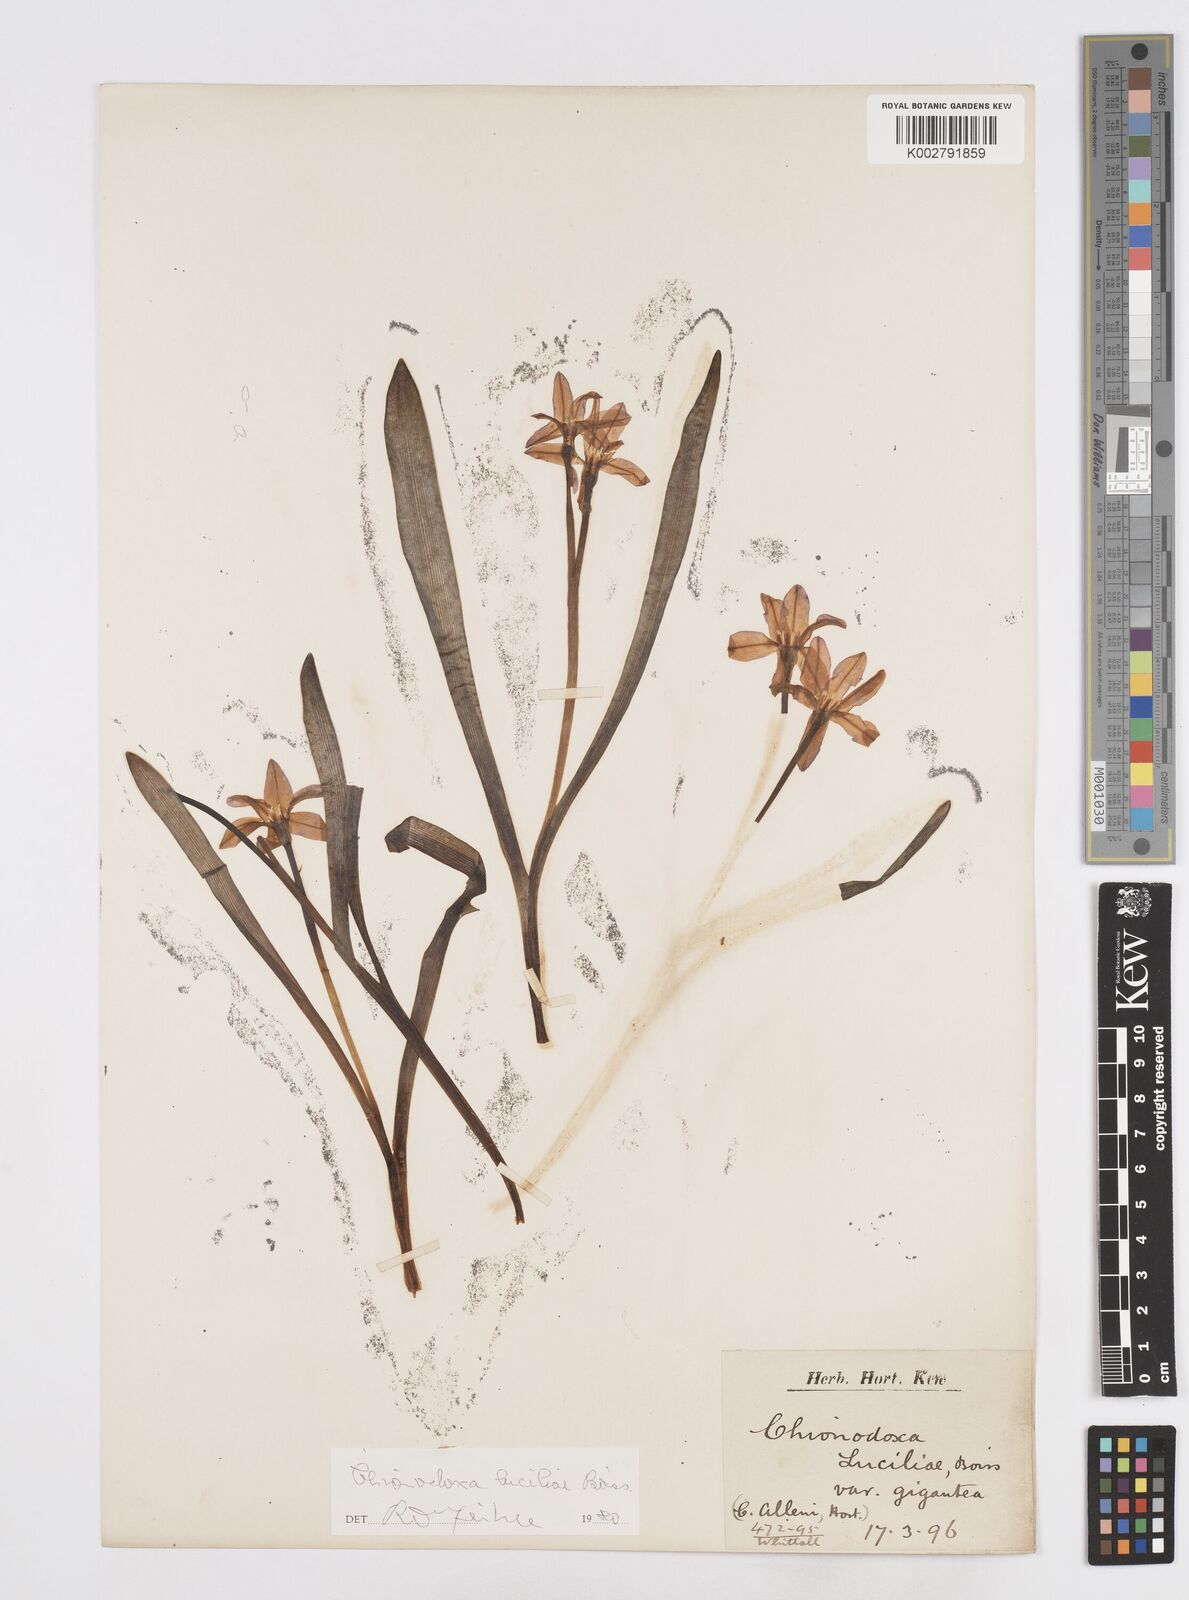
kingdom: Plantae
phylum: Tracheophyta
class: Liliopsida
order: Asparagales
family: Asparagaceae
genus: Scilla
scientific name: Scilla luciliae
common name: Boissier's glory-of-the-snow
